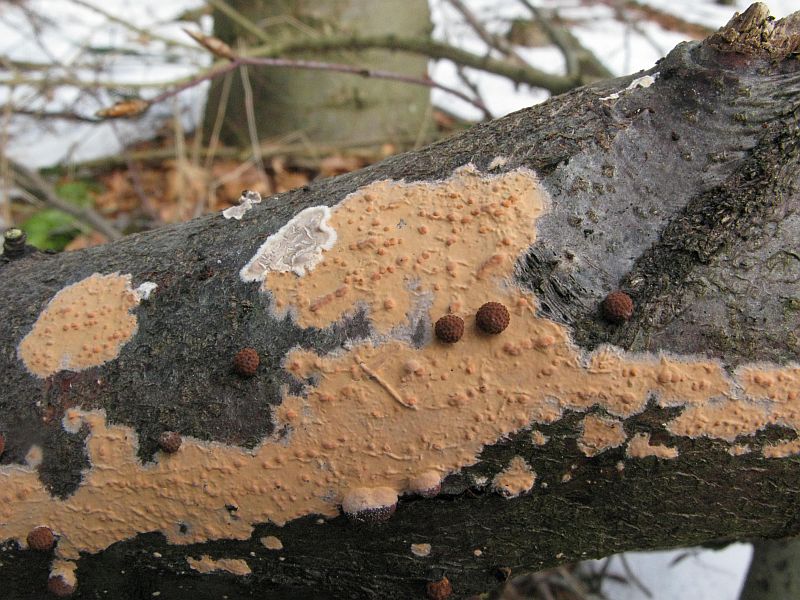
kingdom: Fungi
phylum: Basidiomycota
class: Agaricomycetes
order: Russulales
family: Peniophoraceae
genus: Peniophora
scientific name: Peniophora incarnata
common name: laksefarvet voksskind
